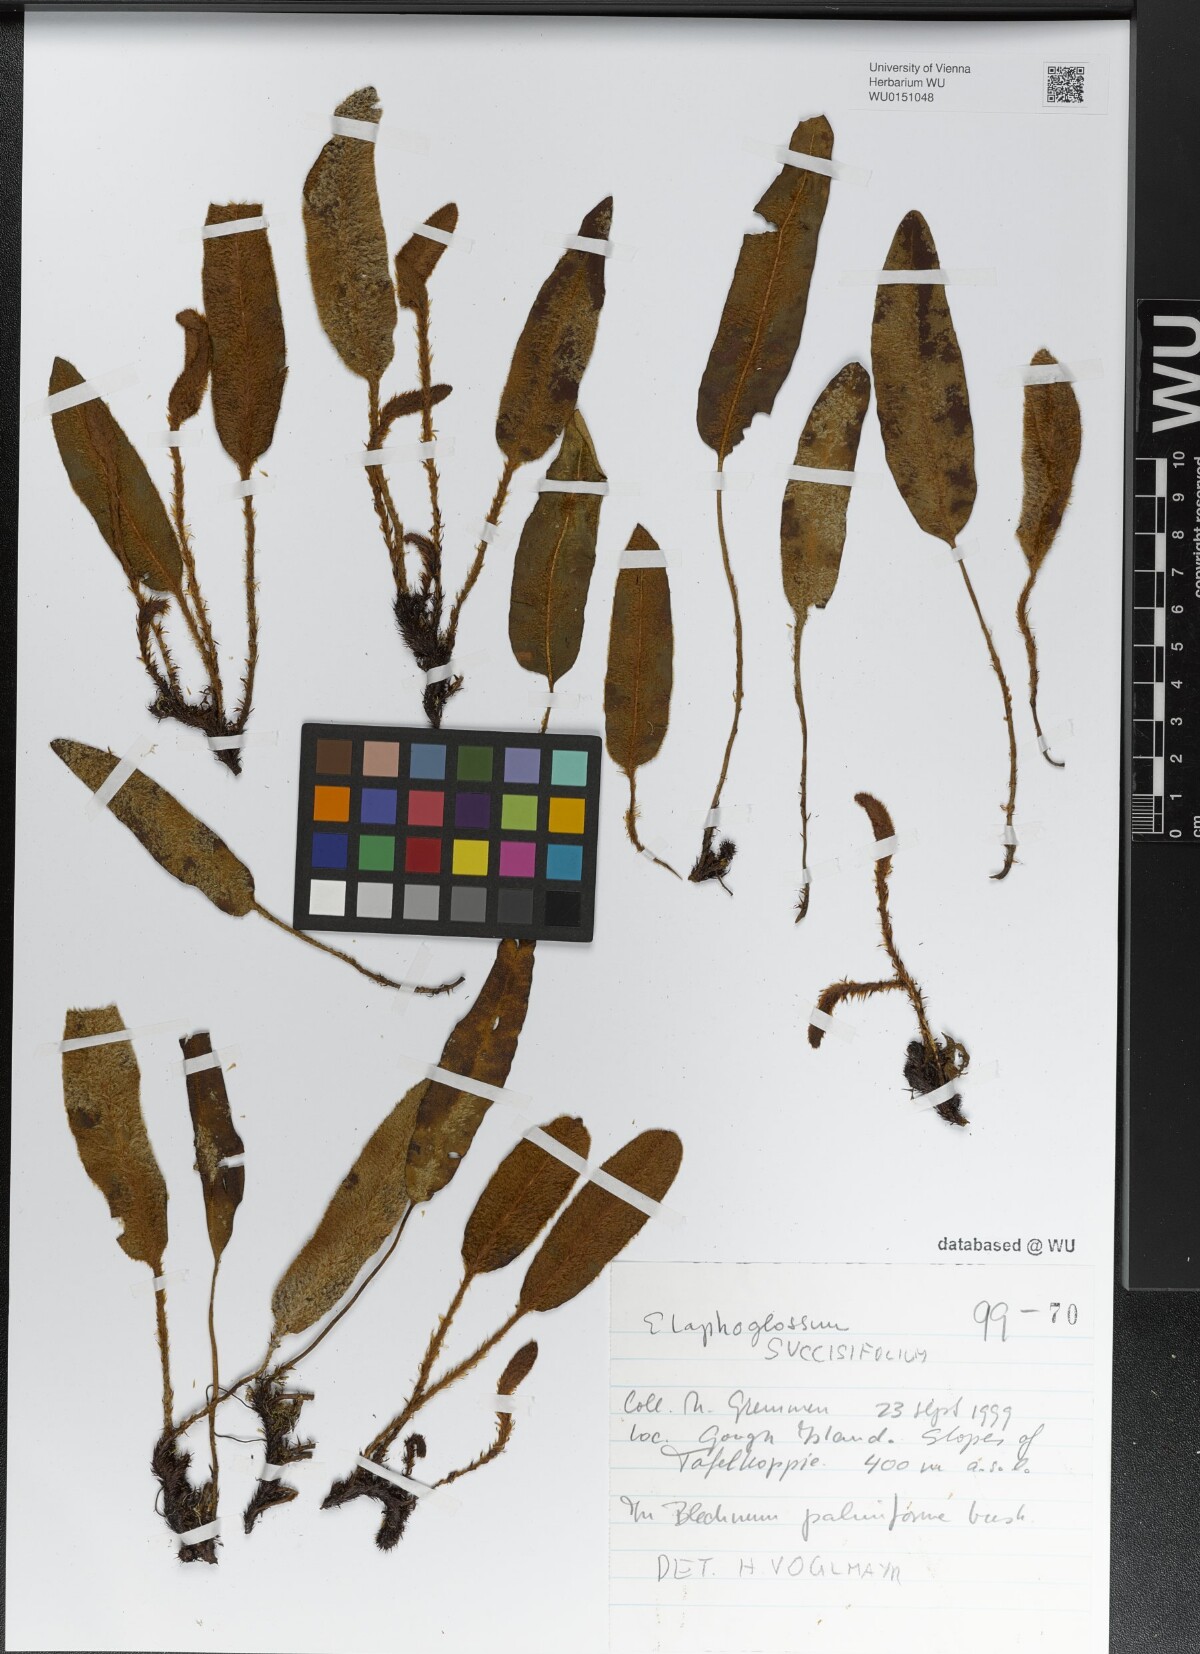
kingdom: Plantae
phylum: Tracheophyta
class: Polypodiopsida
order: Polypodiales
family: Dryopteridaceae
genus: Elaphoglossum
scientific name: Elaphoglossum succisifolium
